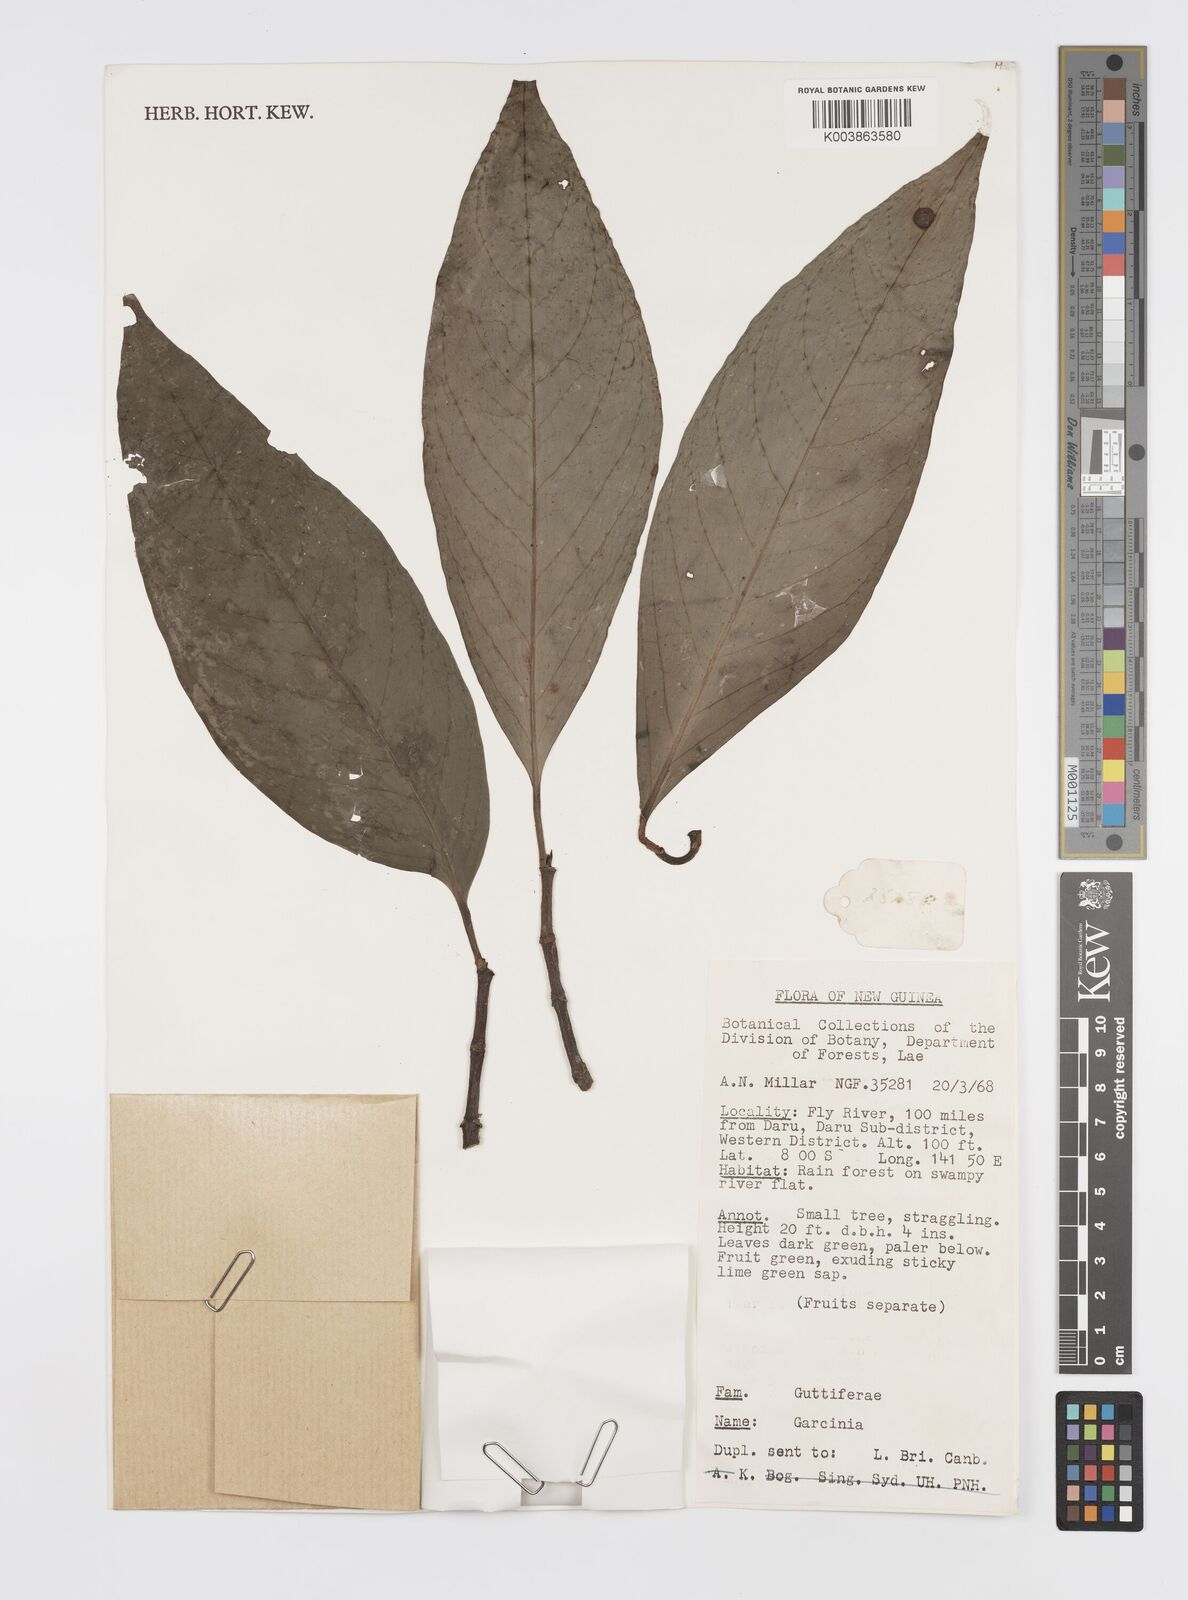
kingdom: Plantae
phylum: Tracheophyta
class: Magnoliopsida
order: Malpighiales
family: Clusiaceae
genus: Garcinia
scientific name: Garcinia
